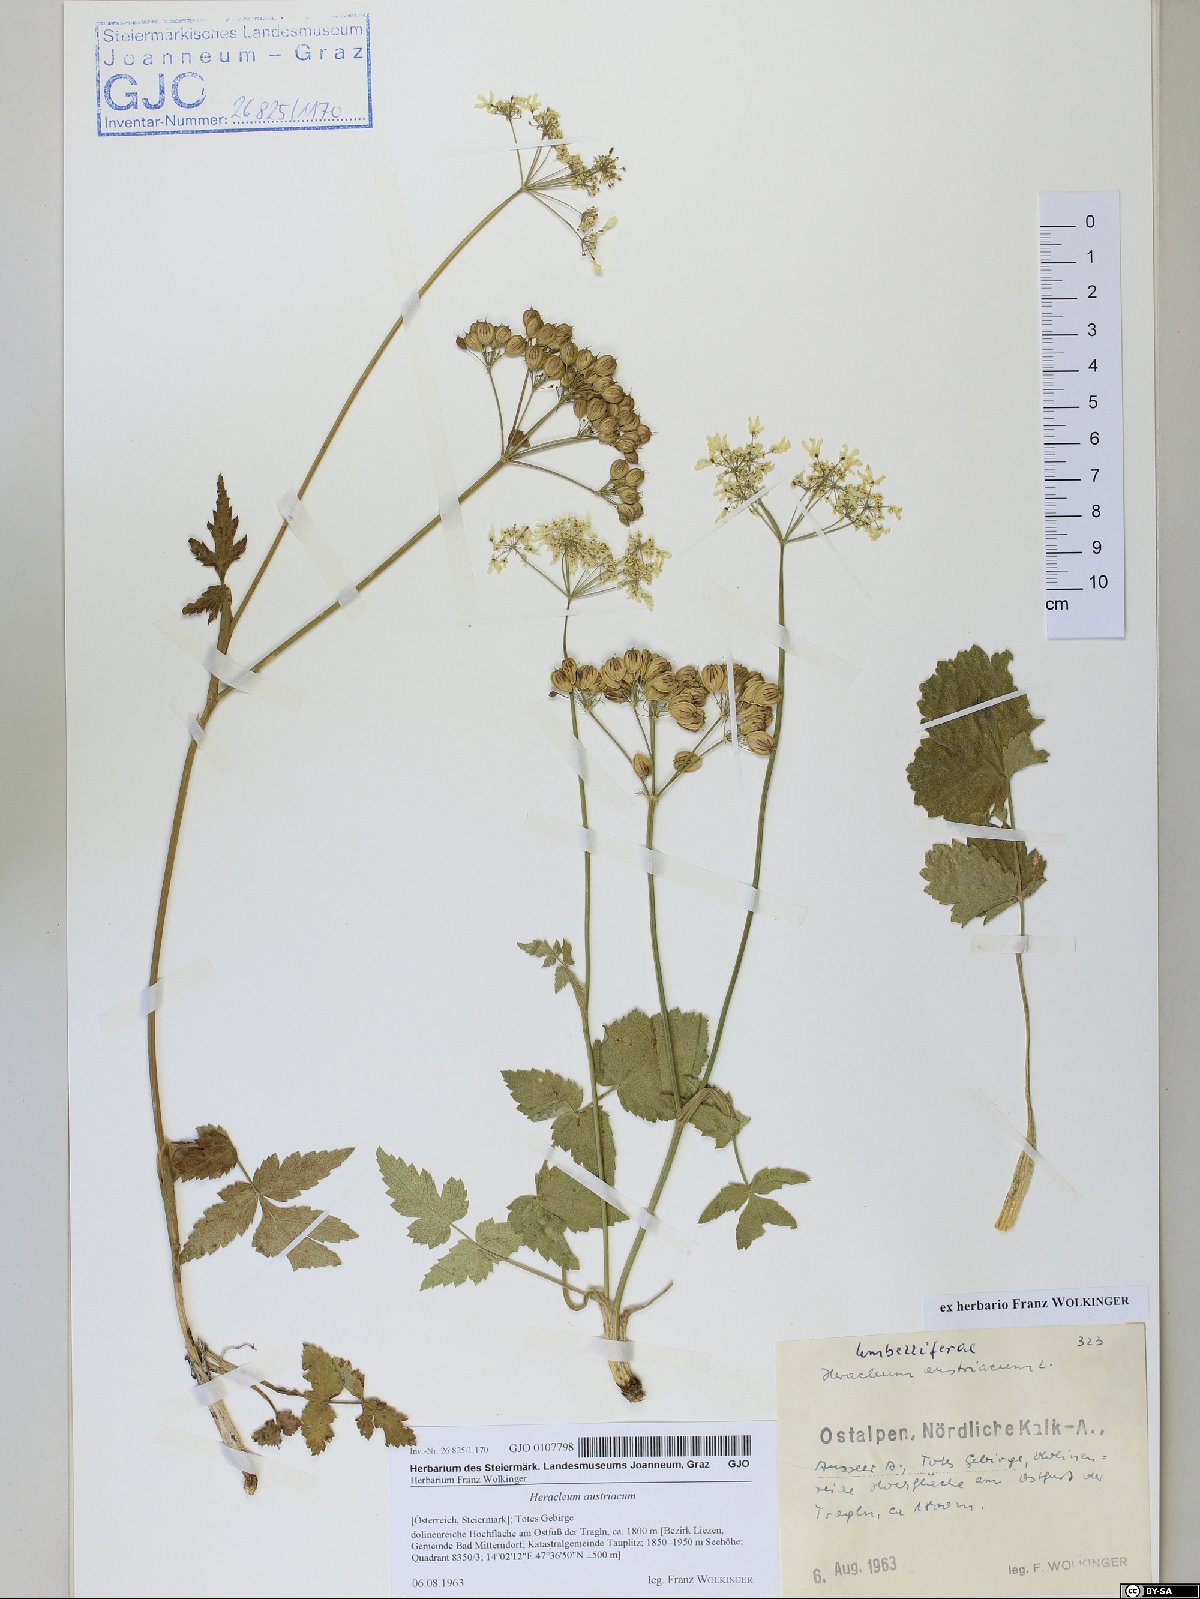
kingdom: Plantae
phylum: Tracheophyta
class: Magnoliopsida
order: Apiales
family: Apiaceae
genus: Heracleum
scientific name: Heracleum austriacum
